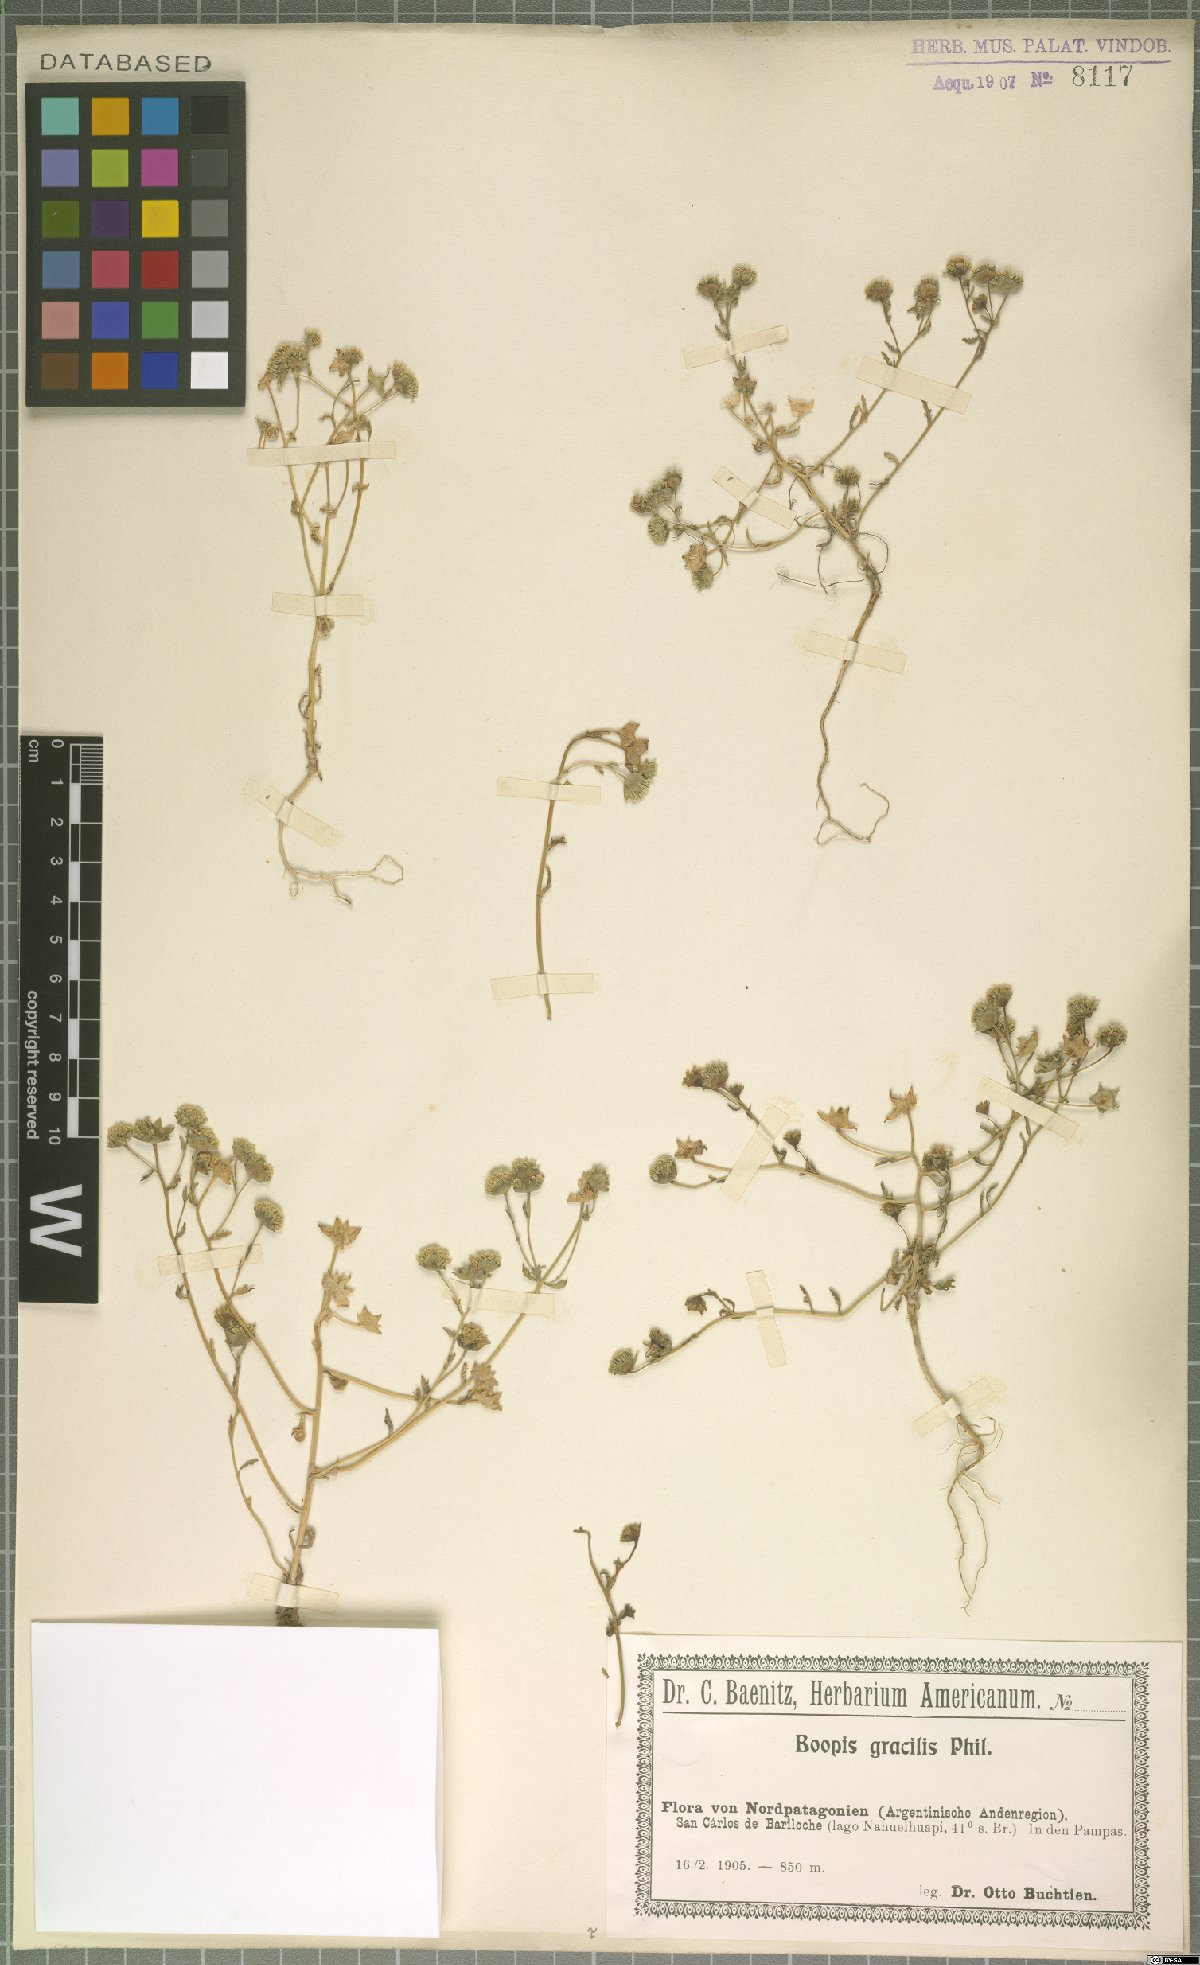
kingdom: Plantae
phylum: Tracheophyta
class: Magnoliopsida
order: Asterales
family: Calyceraceae
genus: Asynthema
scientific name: Asynthema gracile
